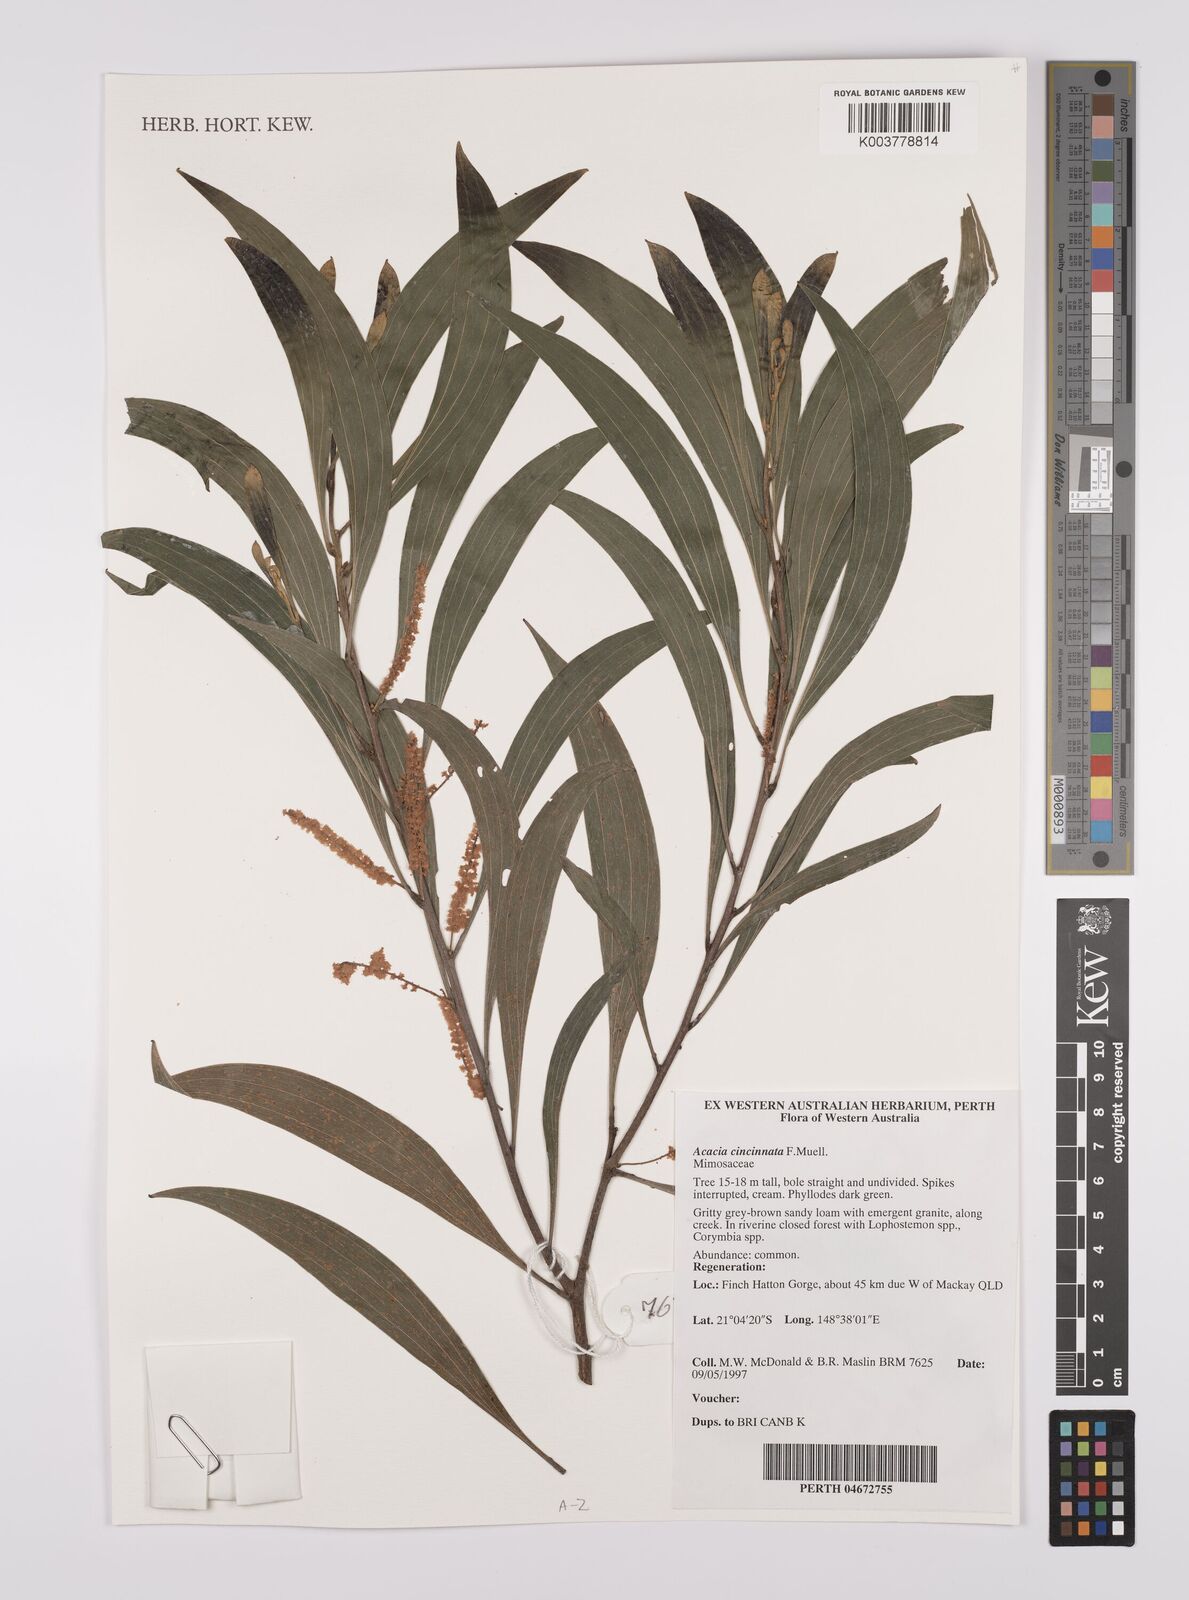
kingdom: Plantae
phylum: Tracheophyta
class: Magnoliopsida
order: Fabales
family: Fabaceae
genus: Acacia
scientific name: Acacia cincinnata
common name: Daintree wattle
